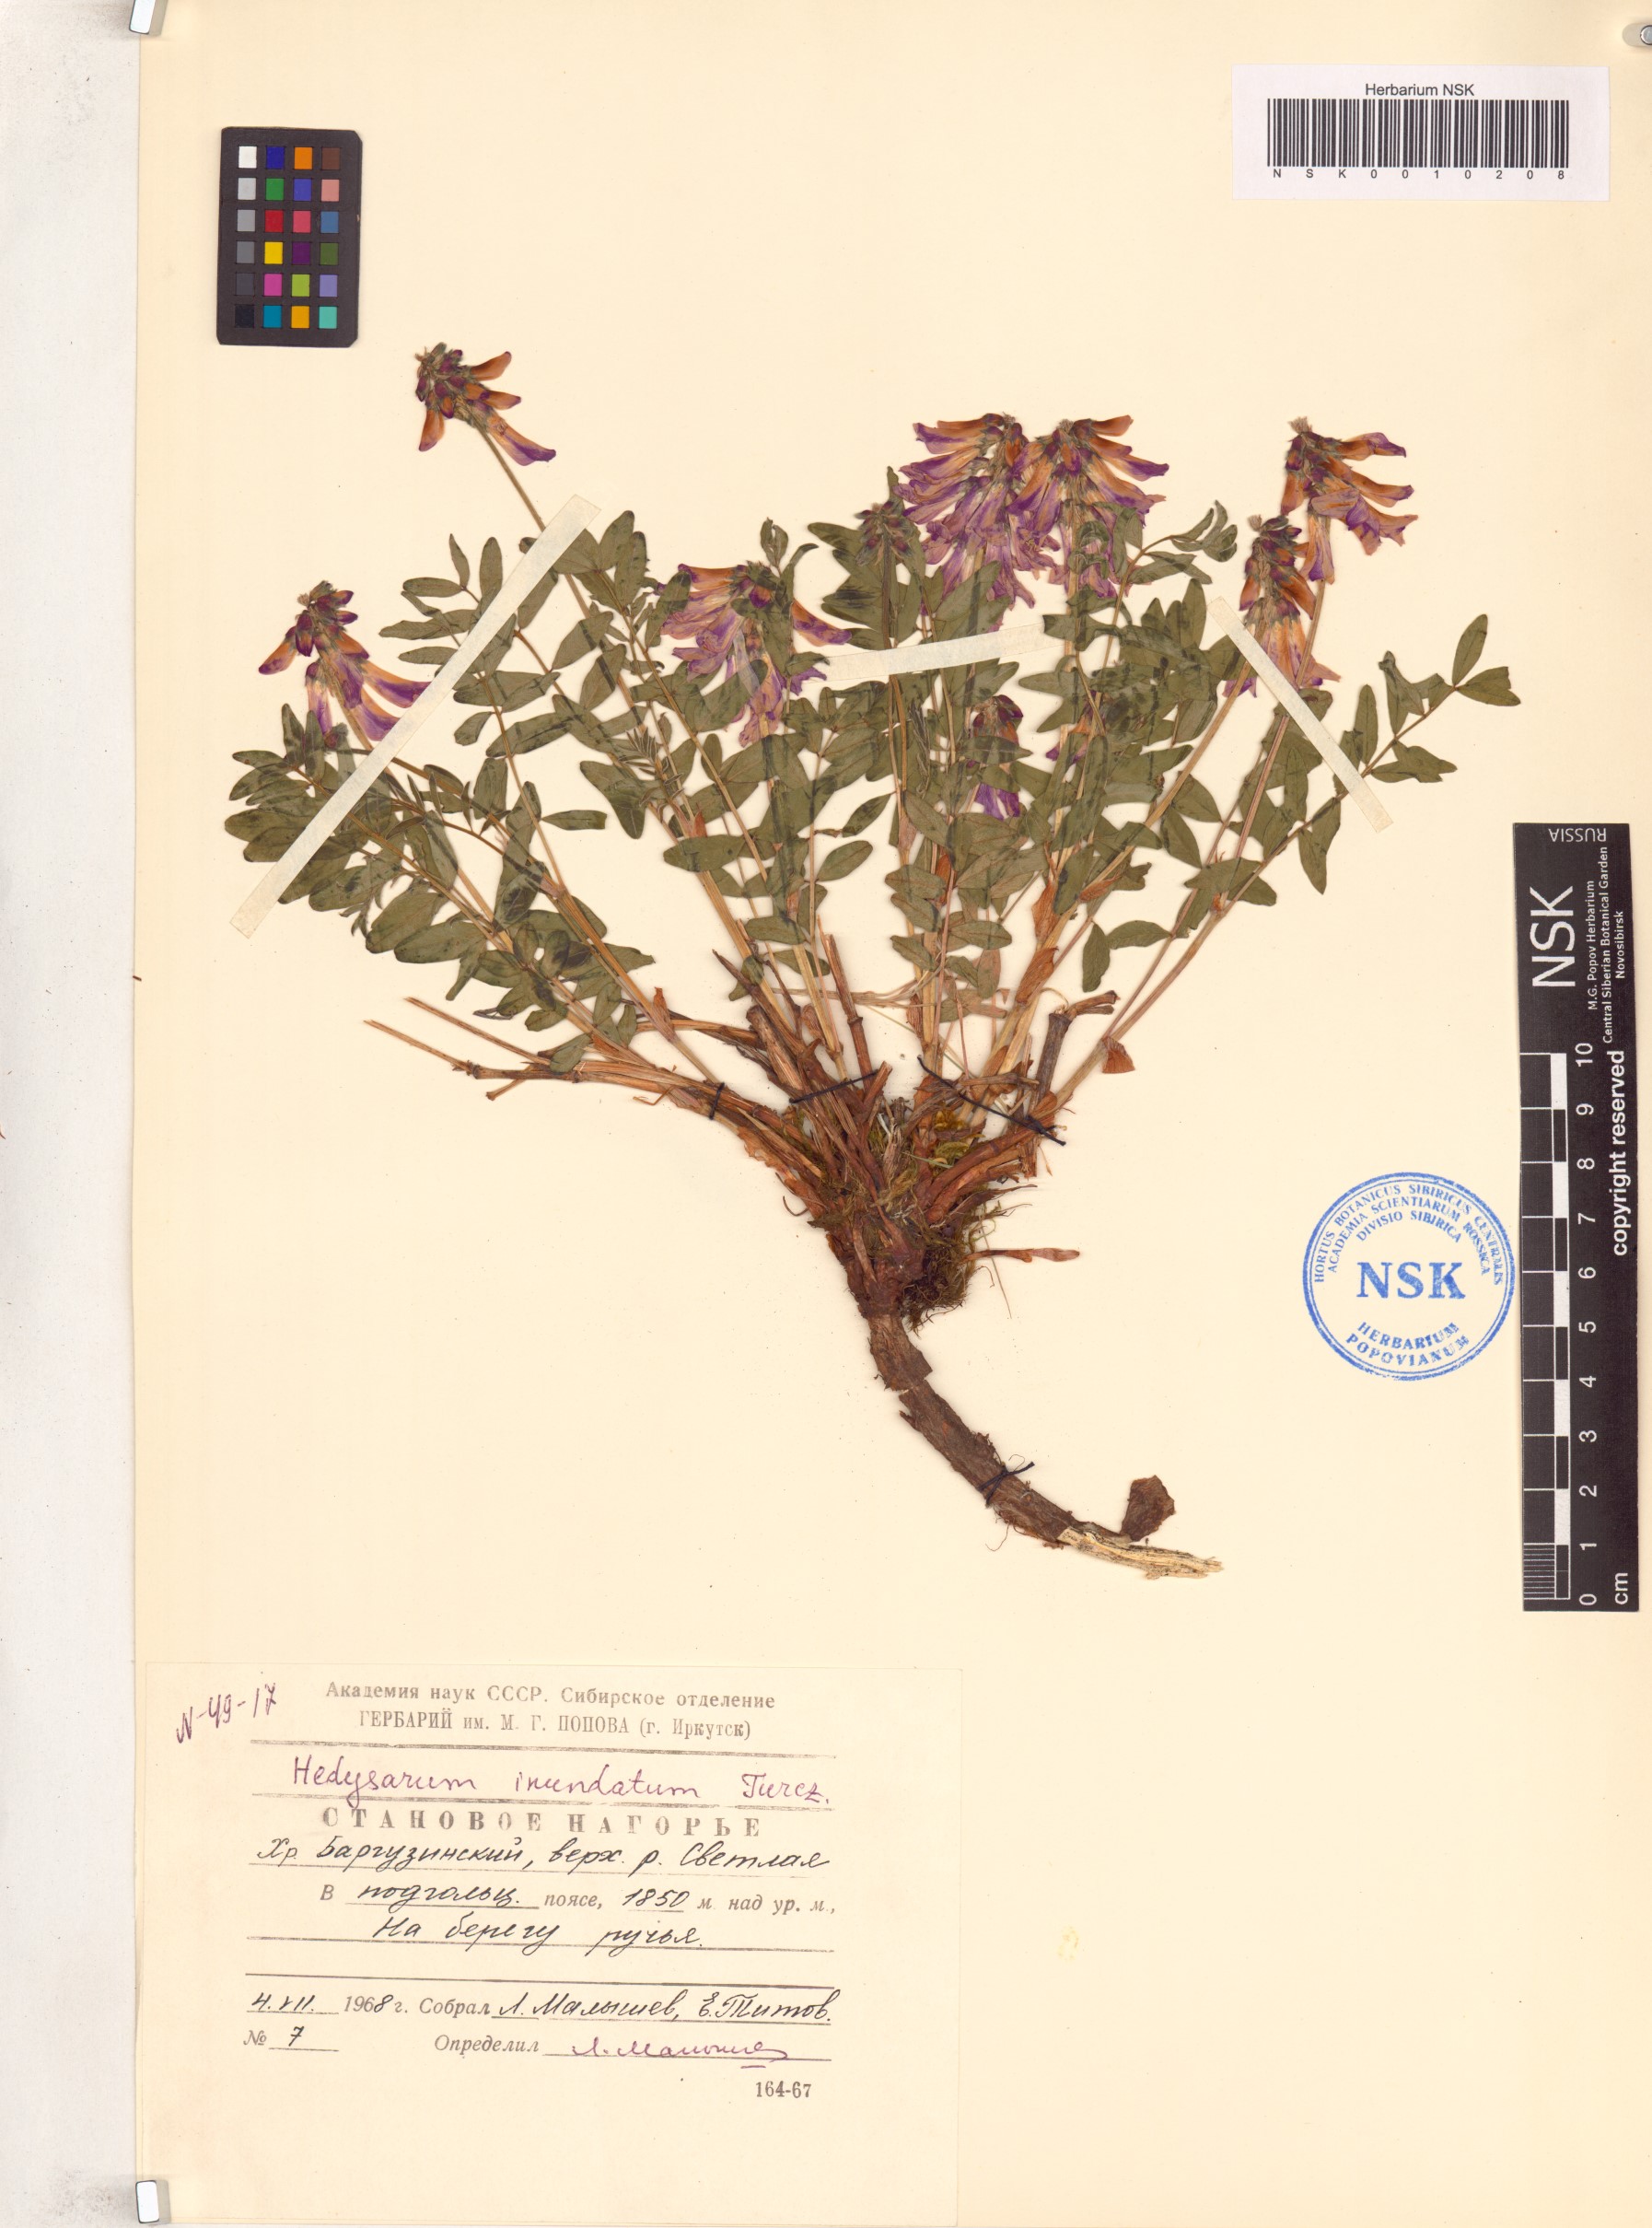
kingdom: Plantae
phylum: Tracheophyta
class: Magnoliopsida
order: Fabales
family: Fabaceae
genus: Hedysarum
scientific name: Hedysarum inundatum
